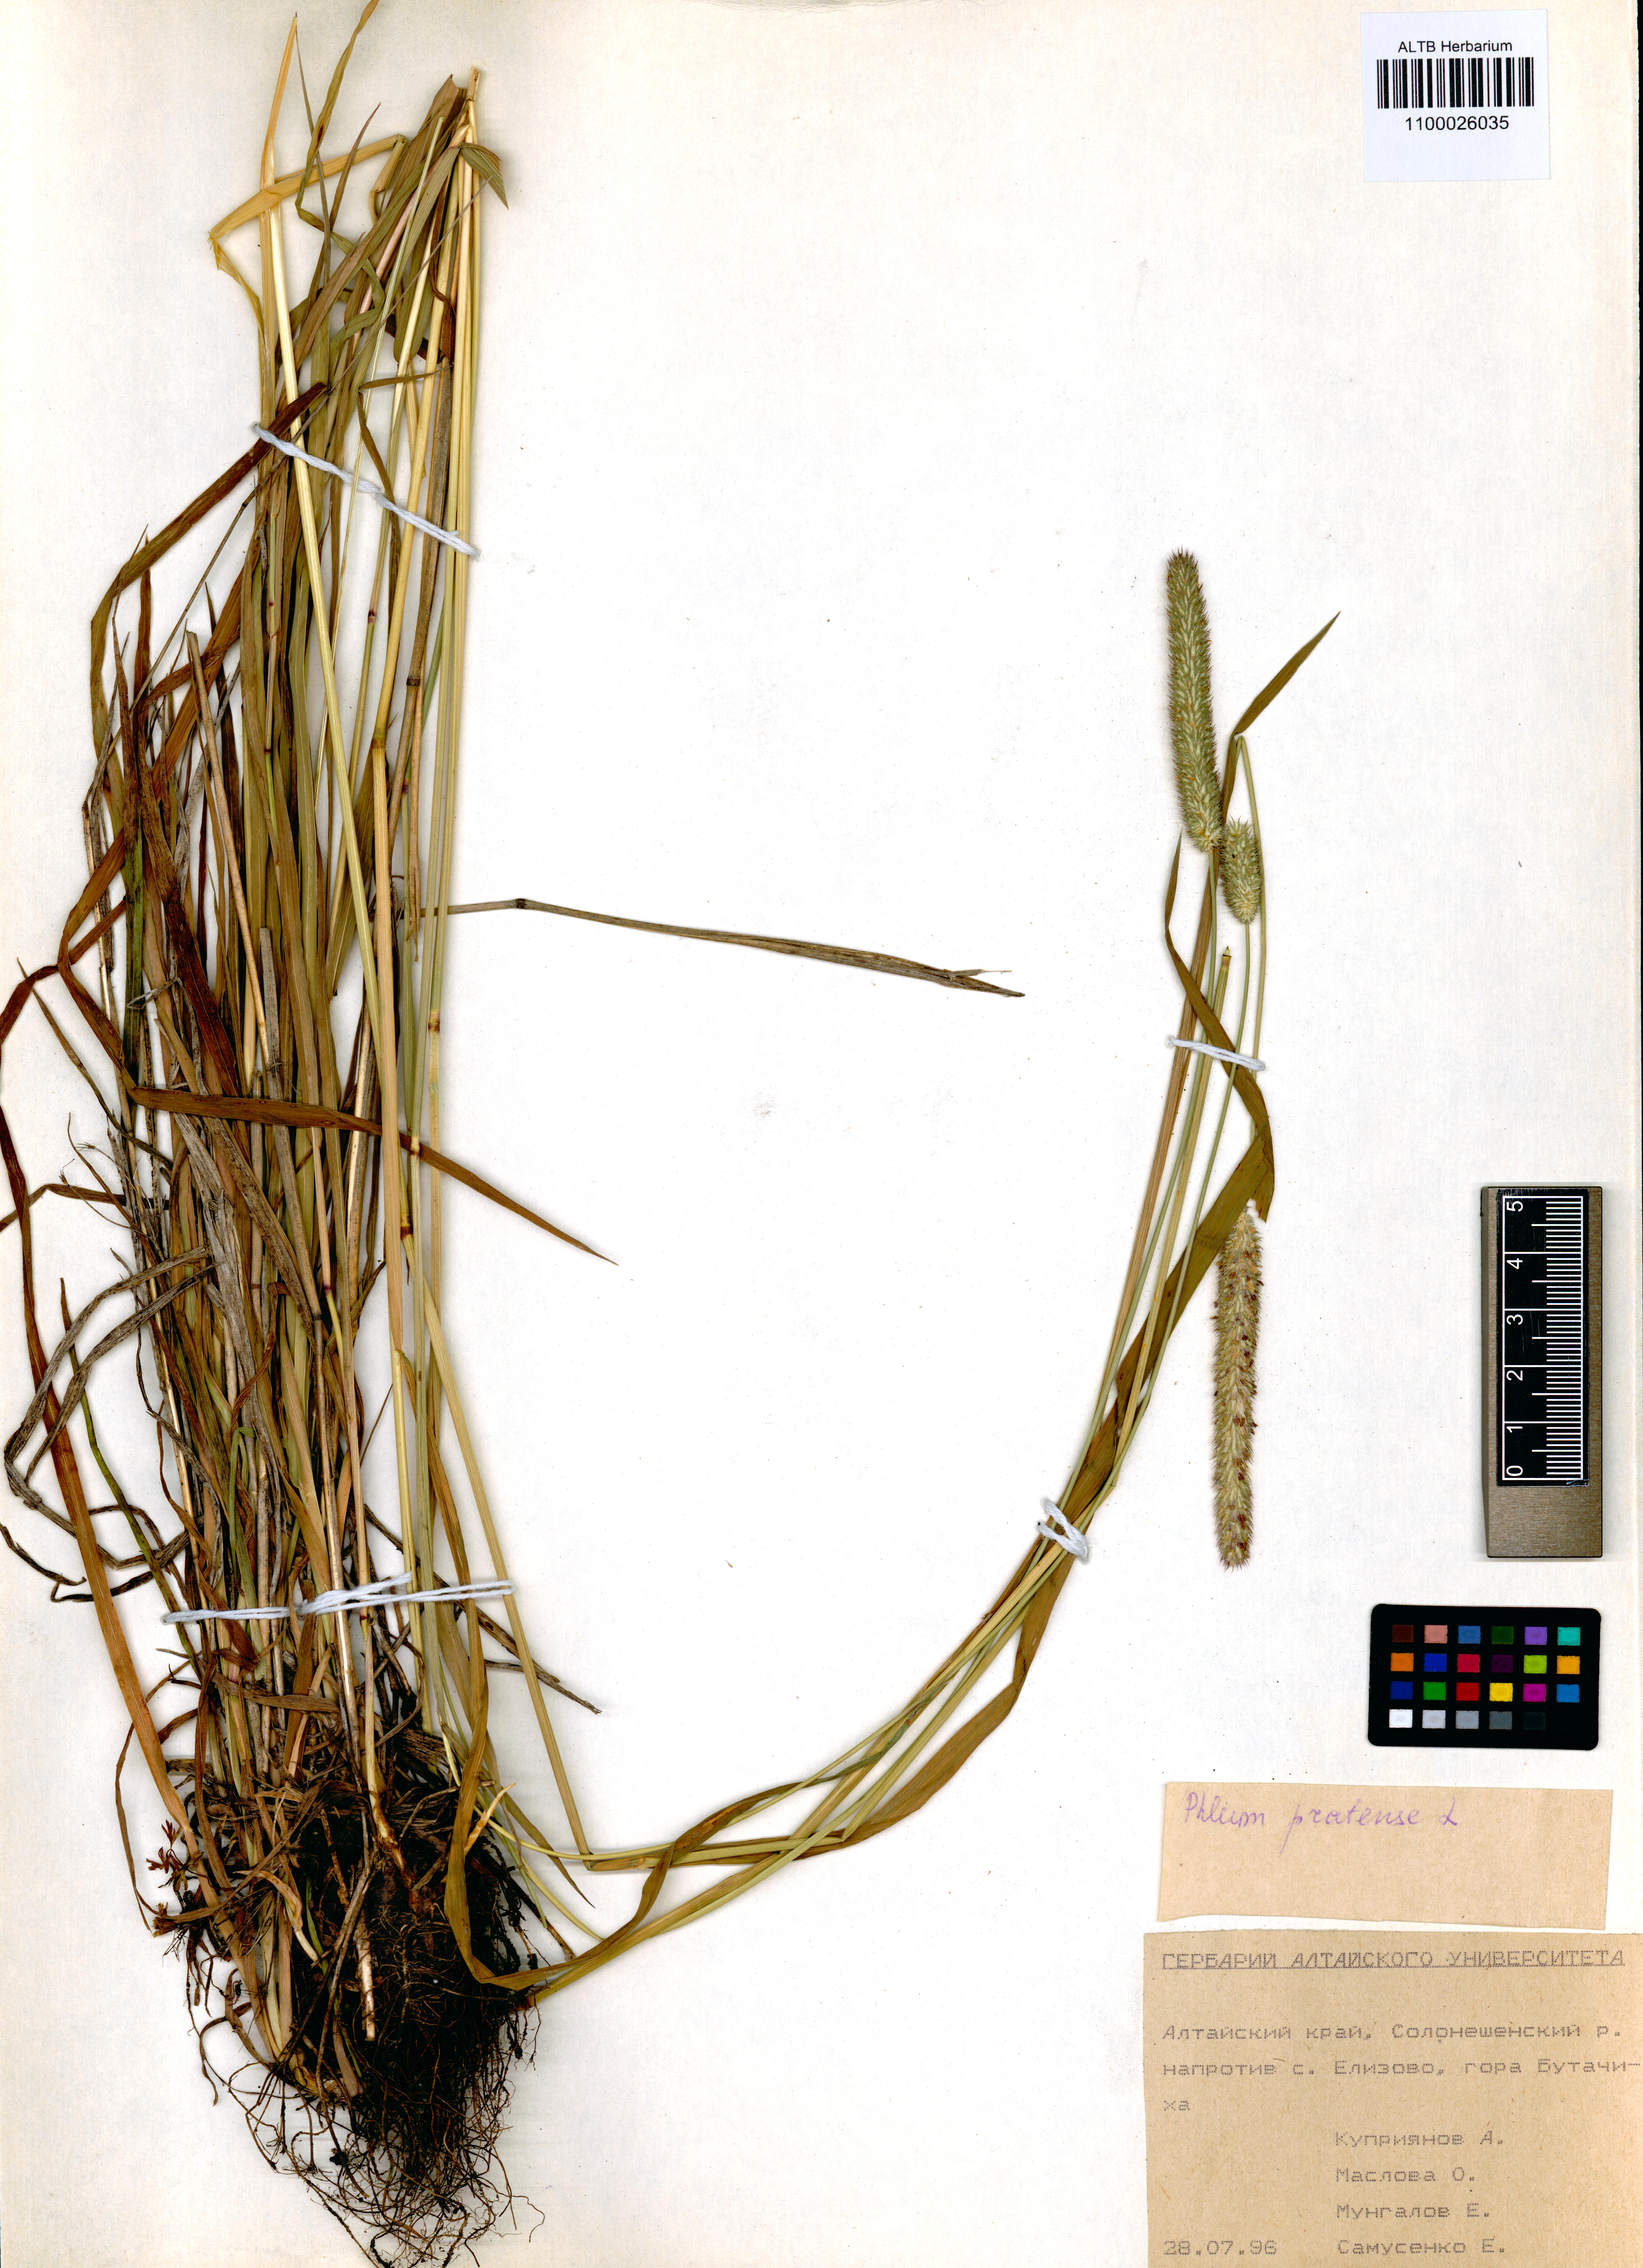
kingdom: Plantae
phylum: Tracheophyta
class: Liliopsida
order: Poales
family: Poaceae
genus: Phleum
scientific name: Phleum pratense
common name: Timothy grass
